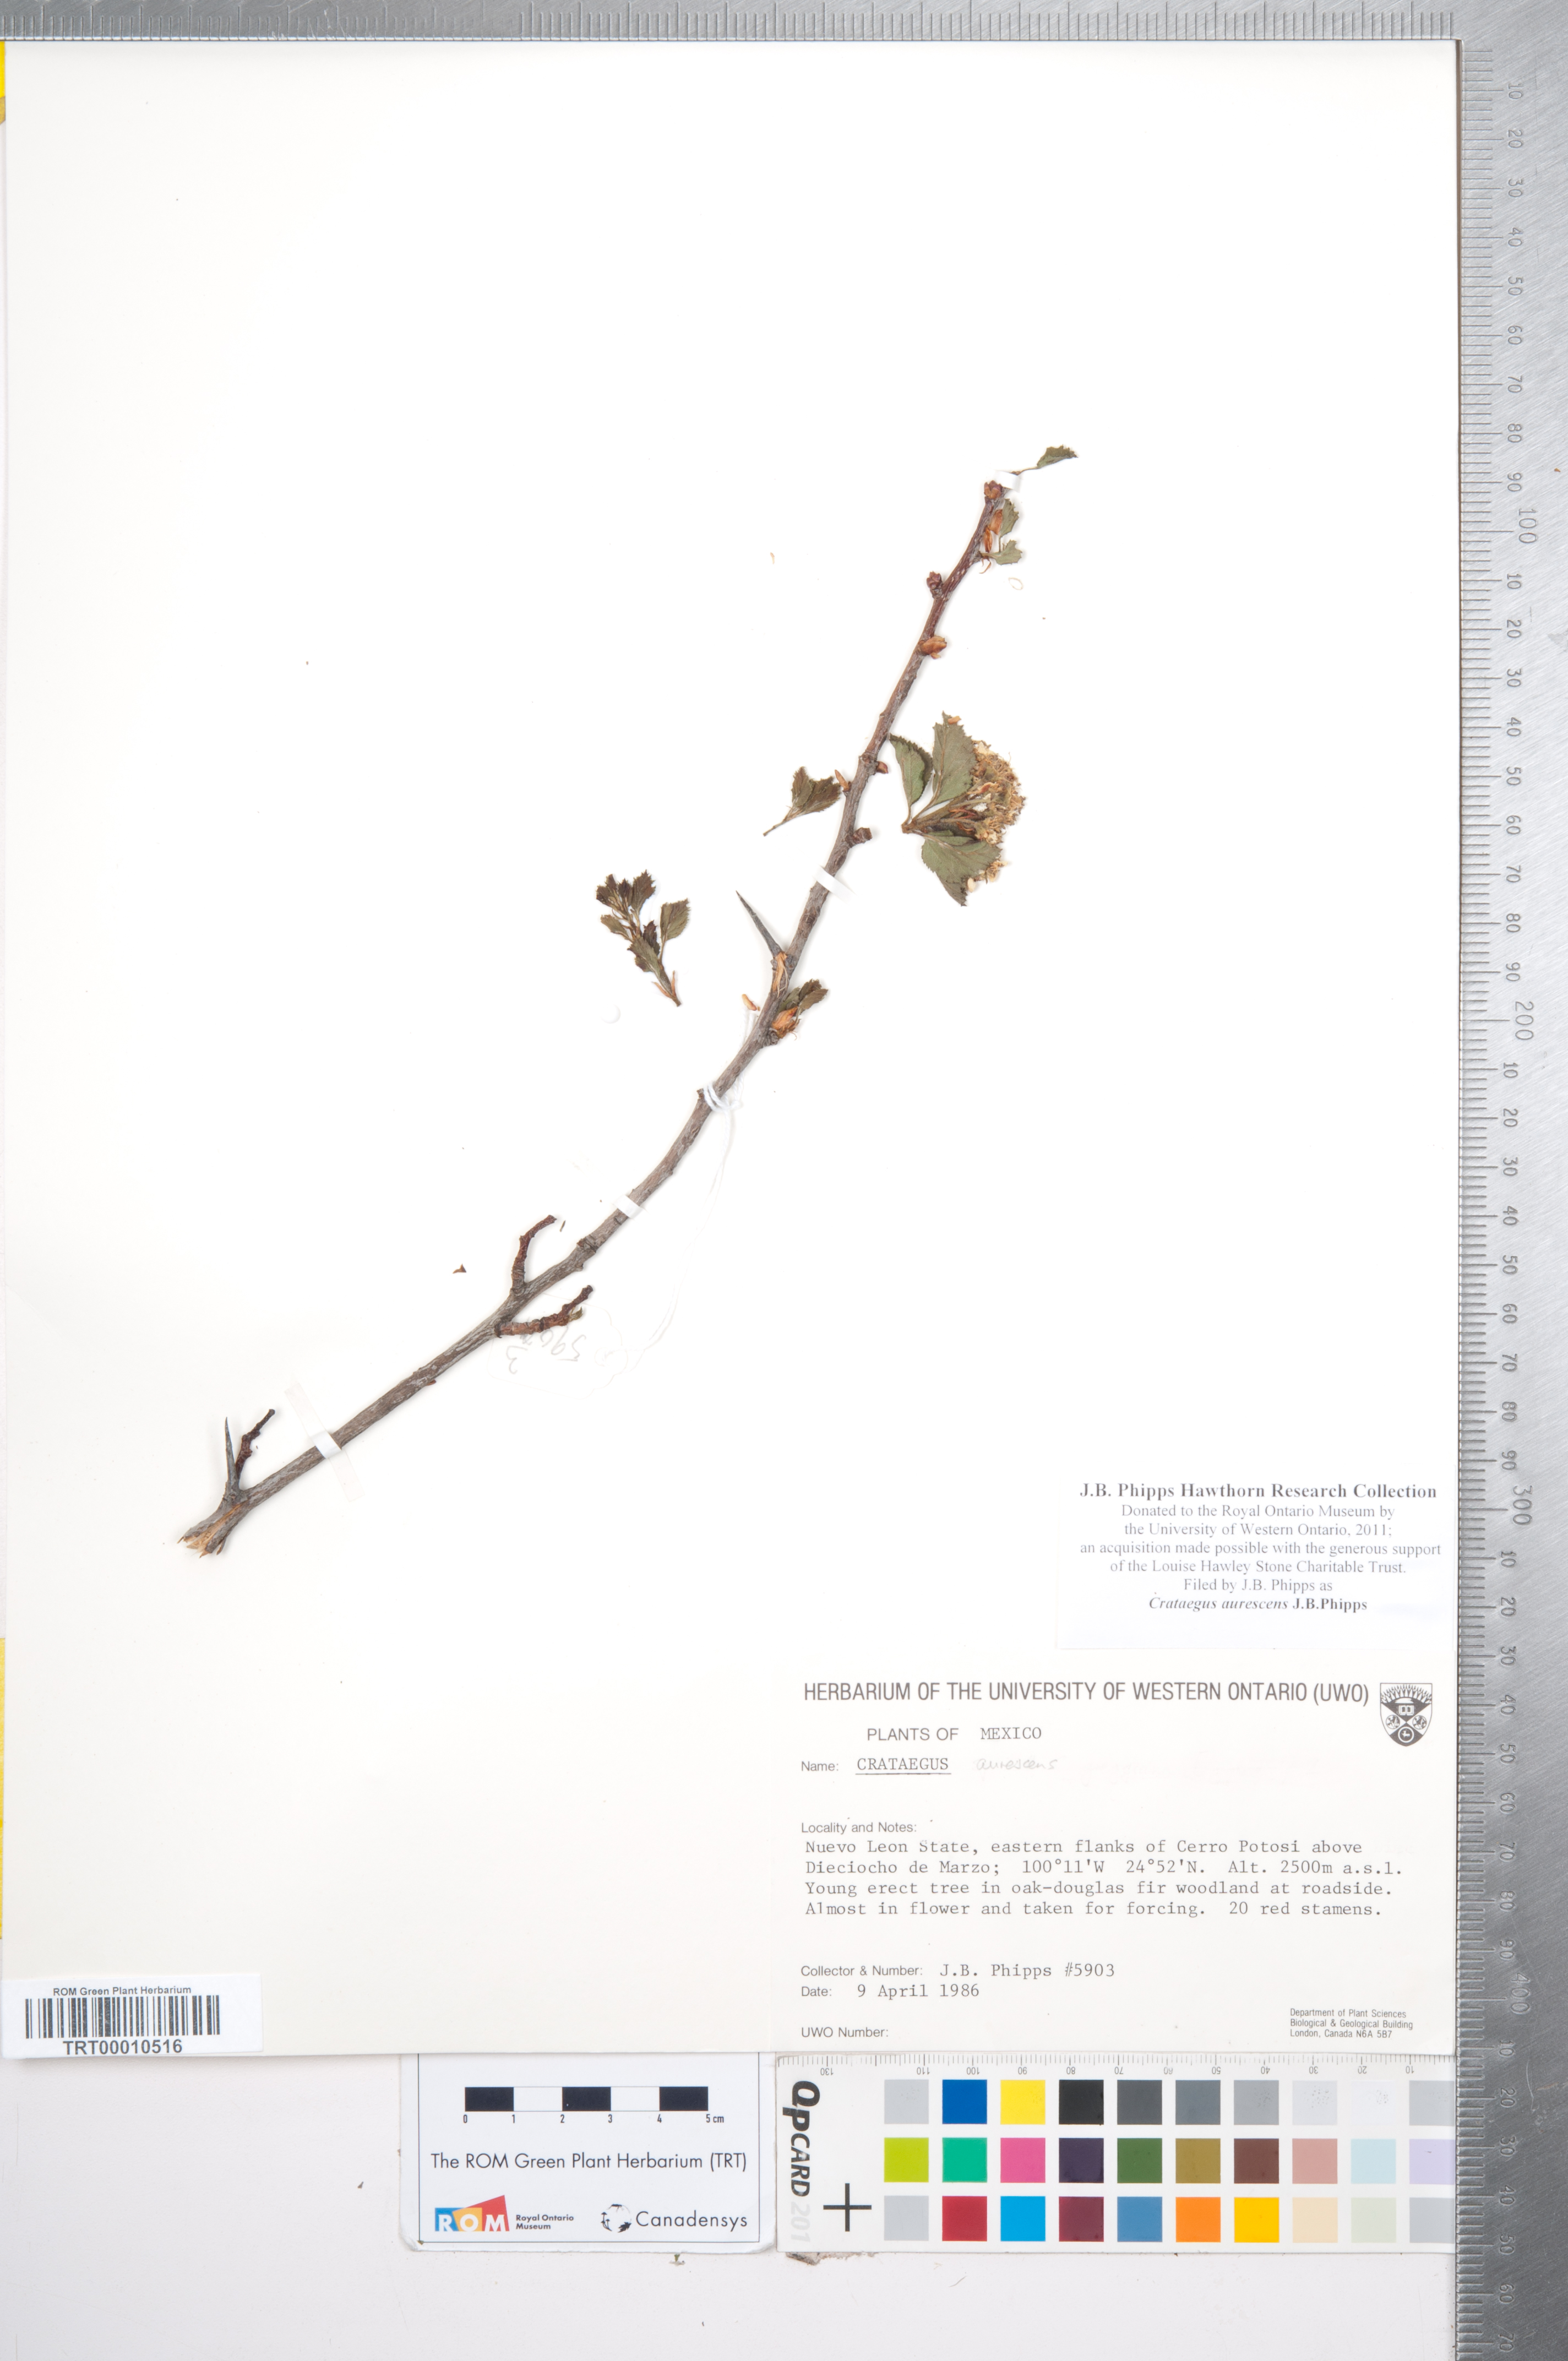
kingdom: Plantae
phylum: Tracheophyta
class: Magnoliopsida
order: Rosales
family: Rosaceae
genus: Crataegus
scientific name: Crataegus aurescens
